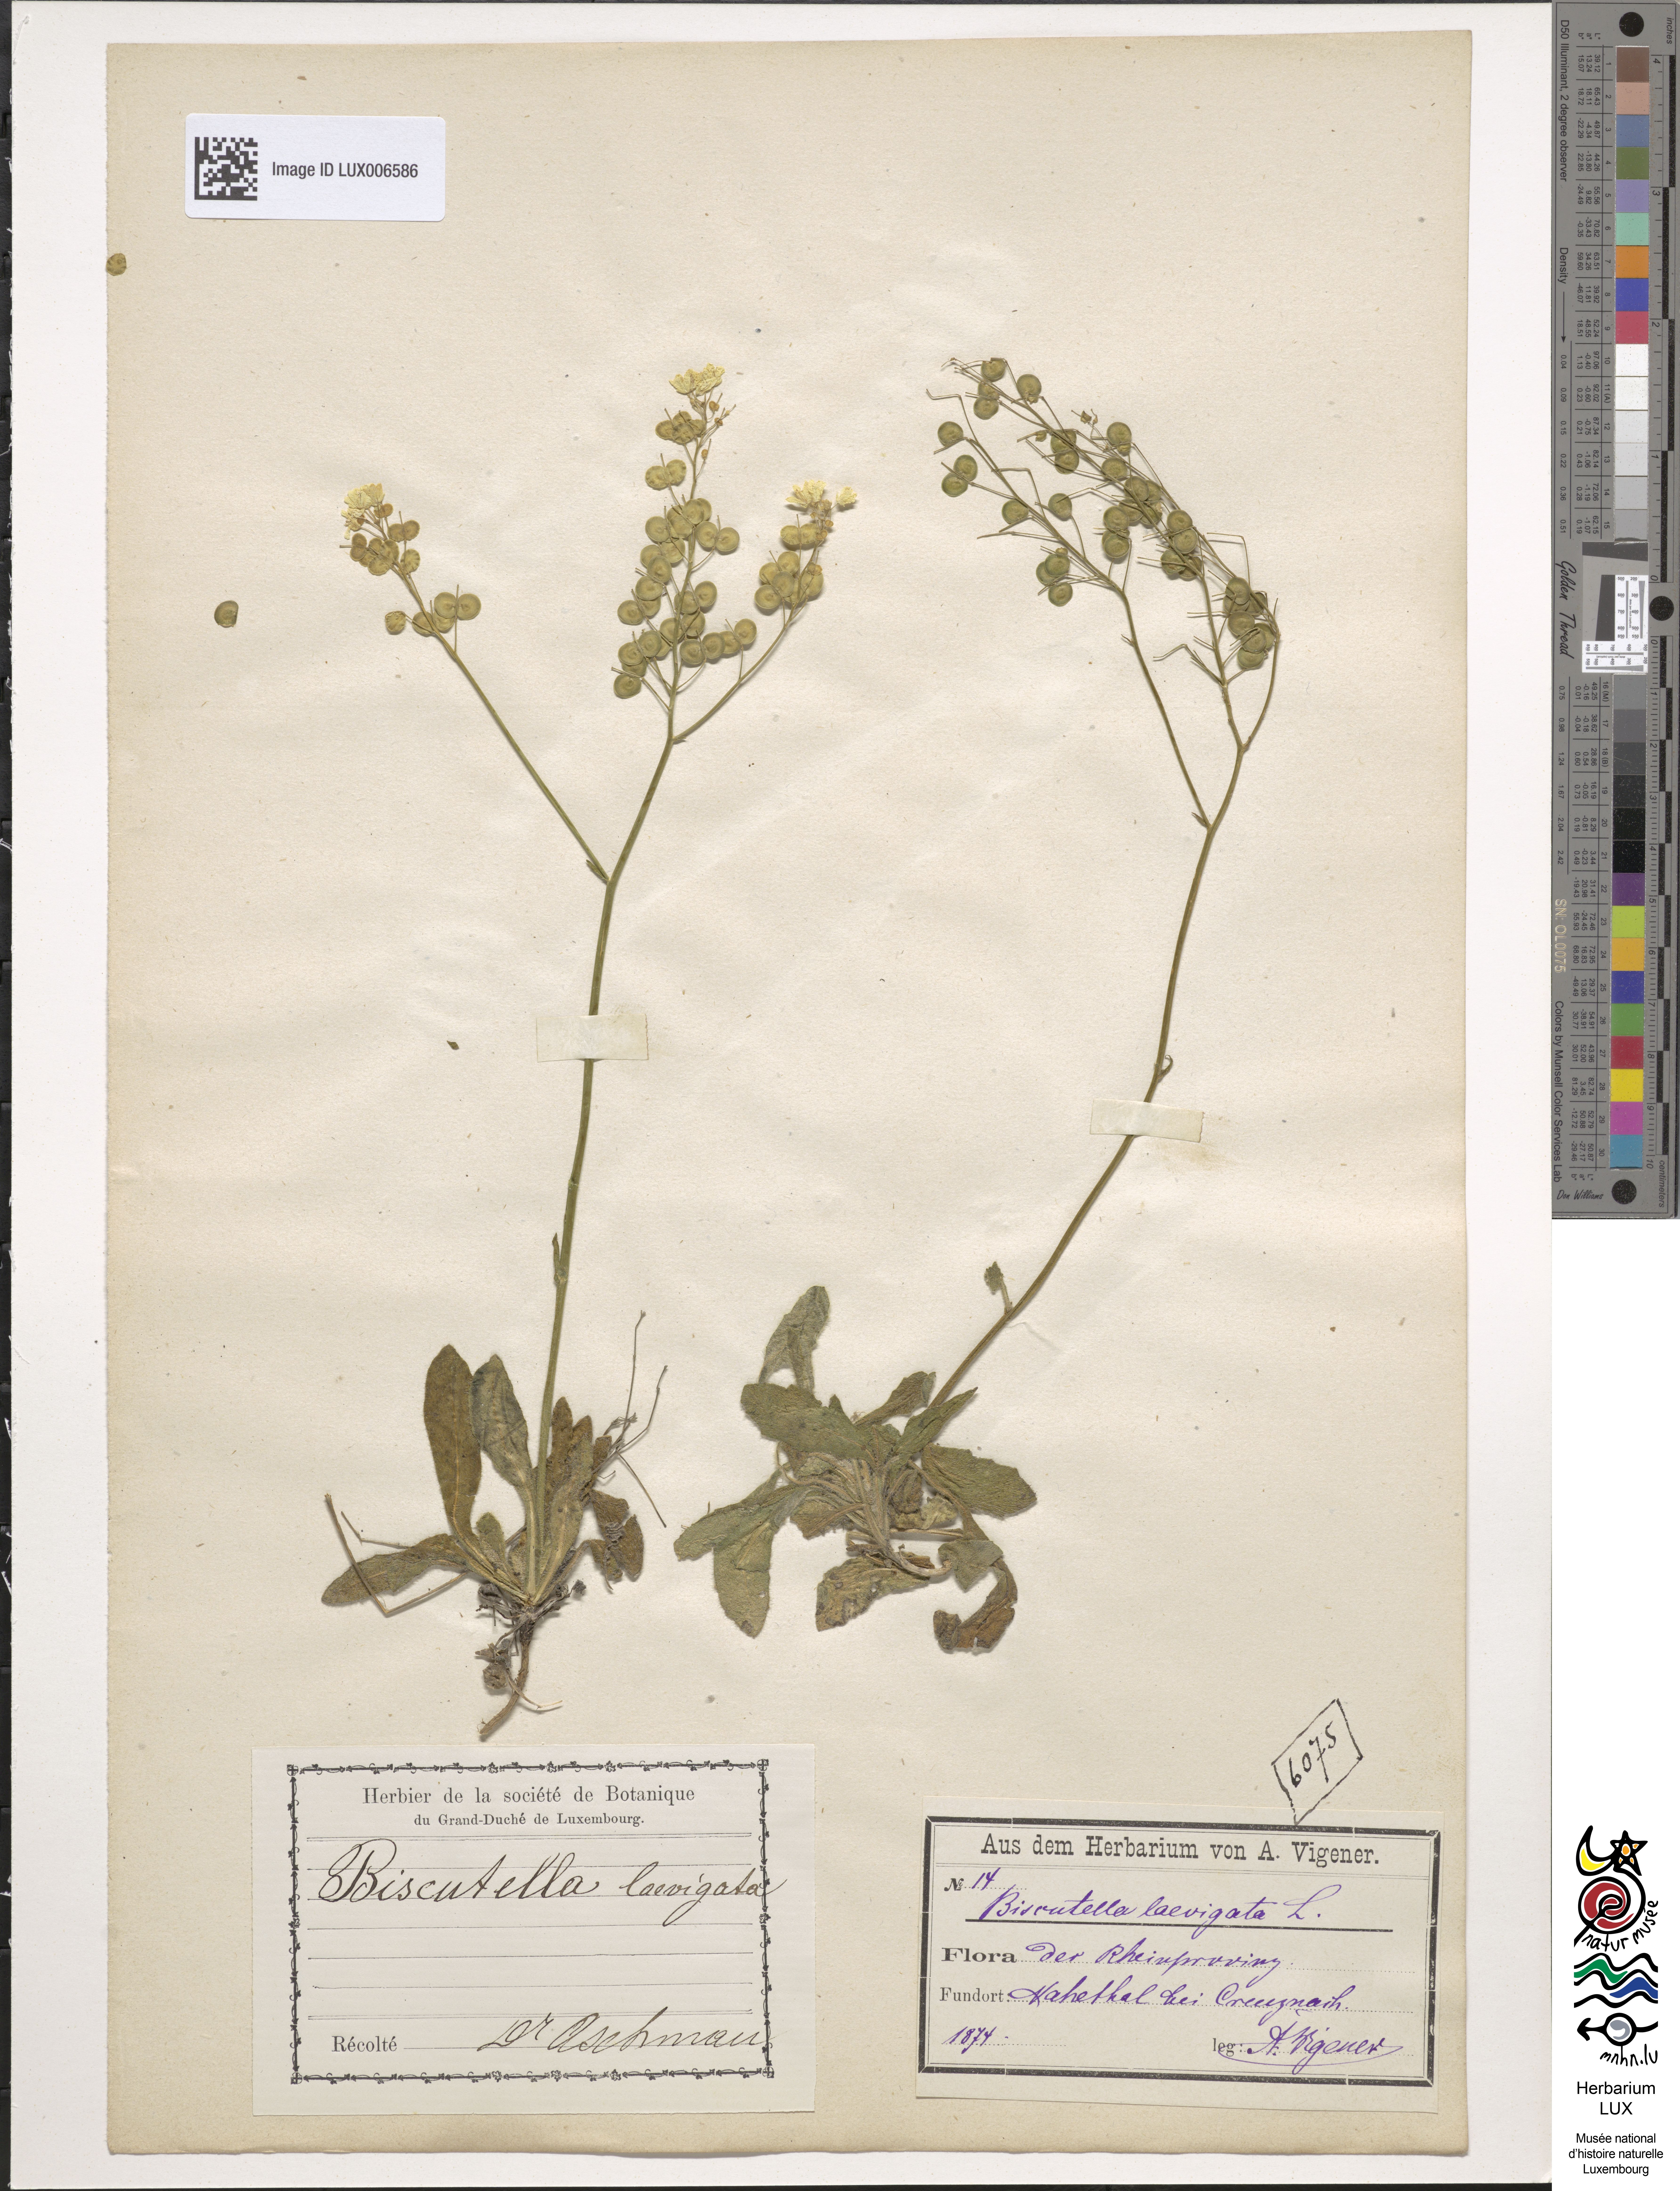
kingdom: Plantae
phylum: Tracheophyta
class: Magnoliopsida
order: Brassicales
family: Brassicaceae
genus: Biscutella
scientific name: Biscutella laevigata
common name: Buckler mustard
